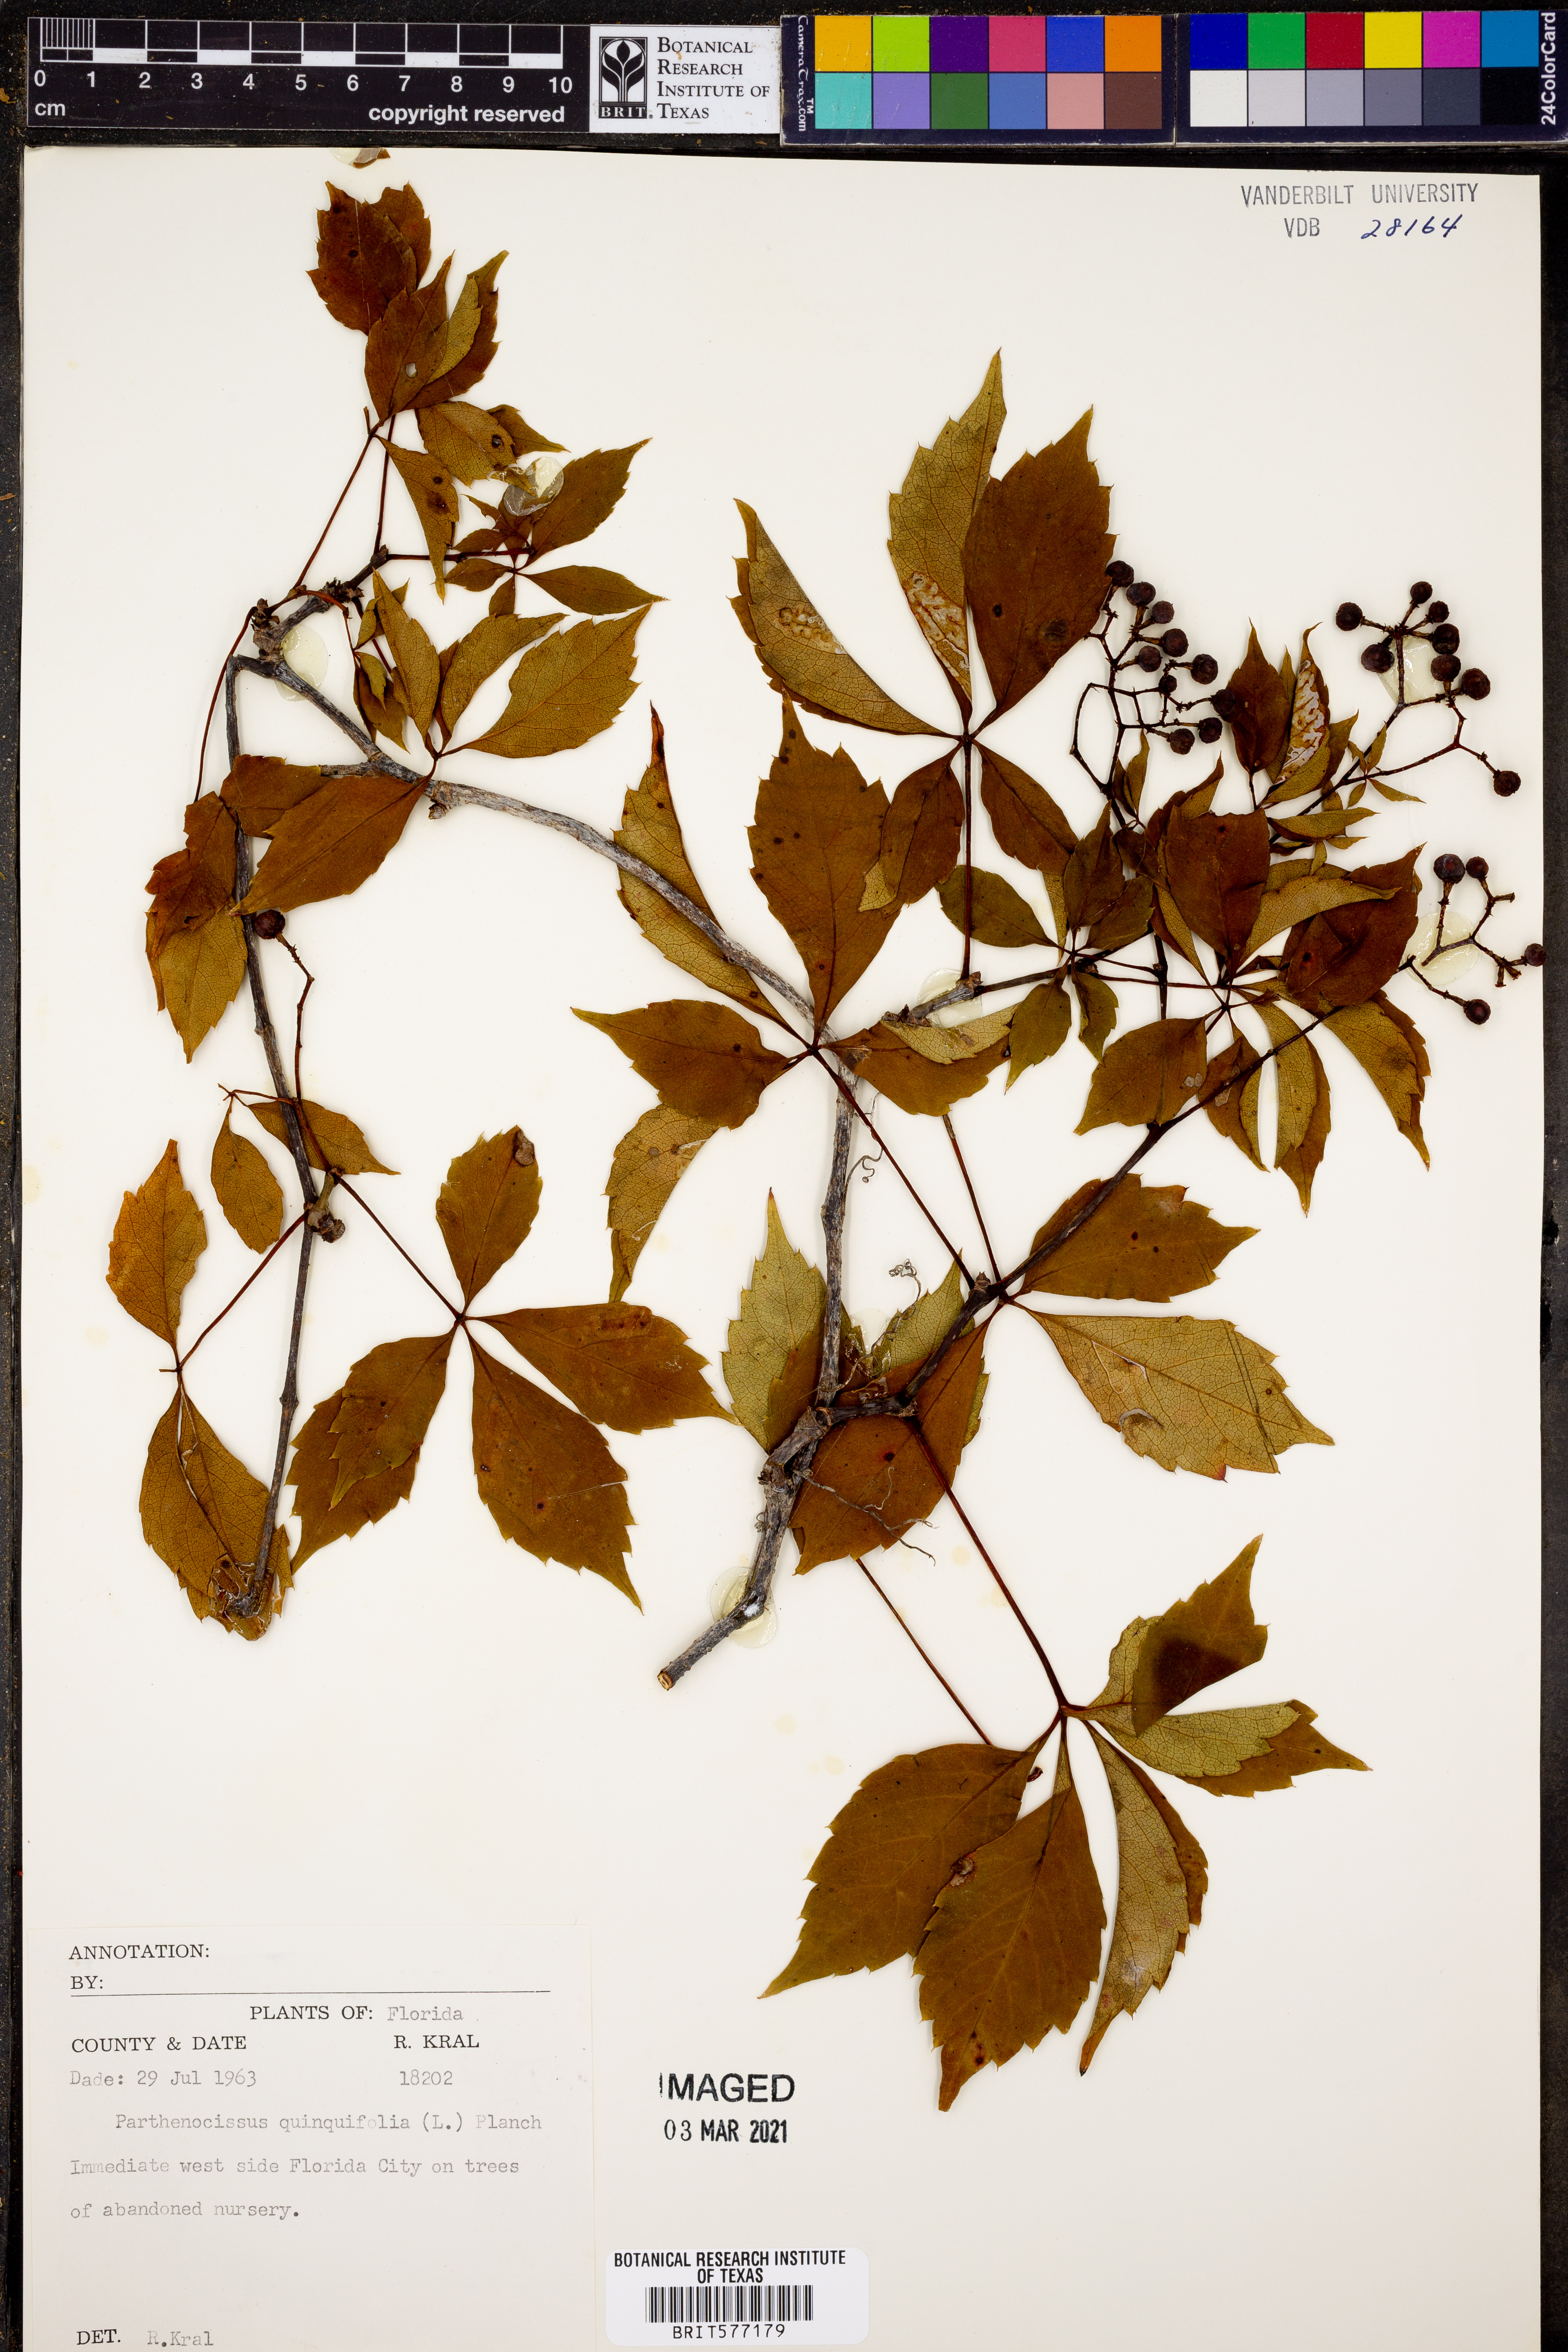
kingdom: Plantae
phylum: Tracheophyta
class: Magnoliopsida
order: Vitales
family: Vitaceae
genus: Parthenocissus
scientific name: Parthenocissus quinquefolia
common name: Virginia-creeper
